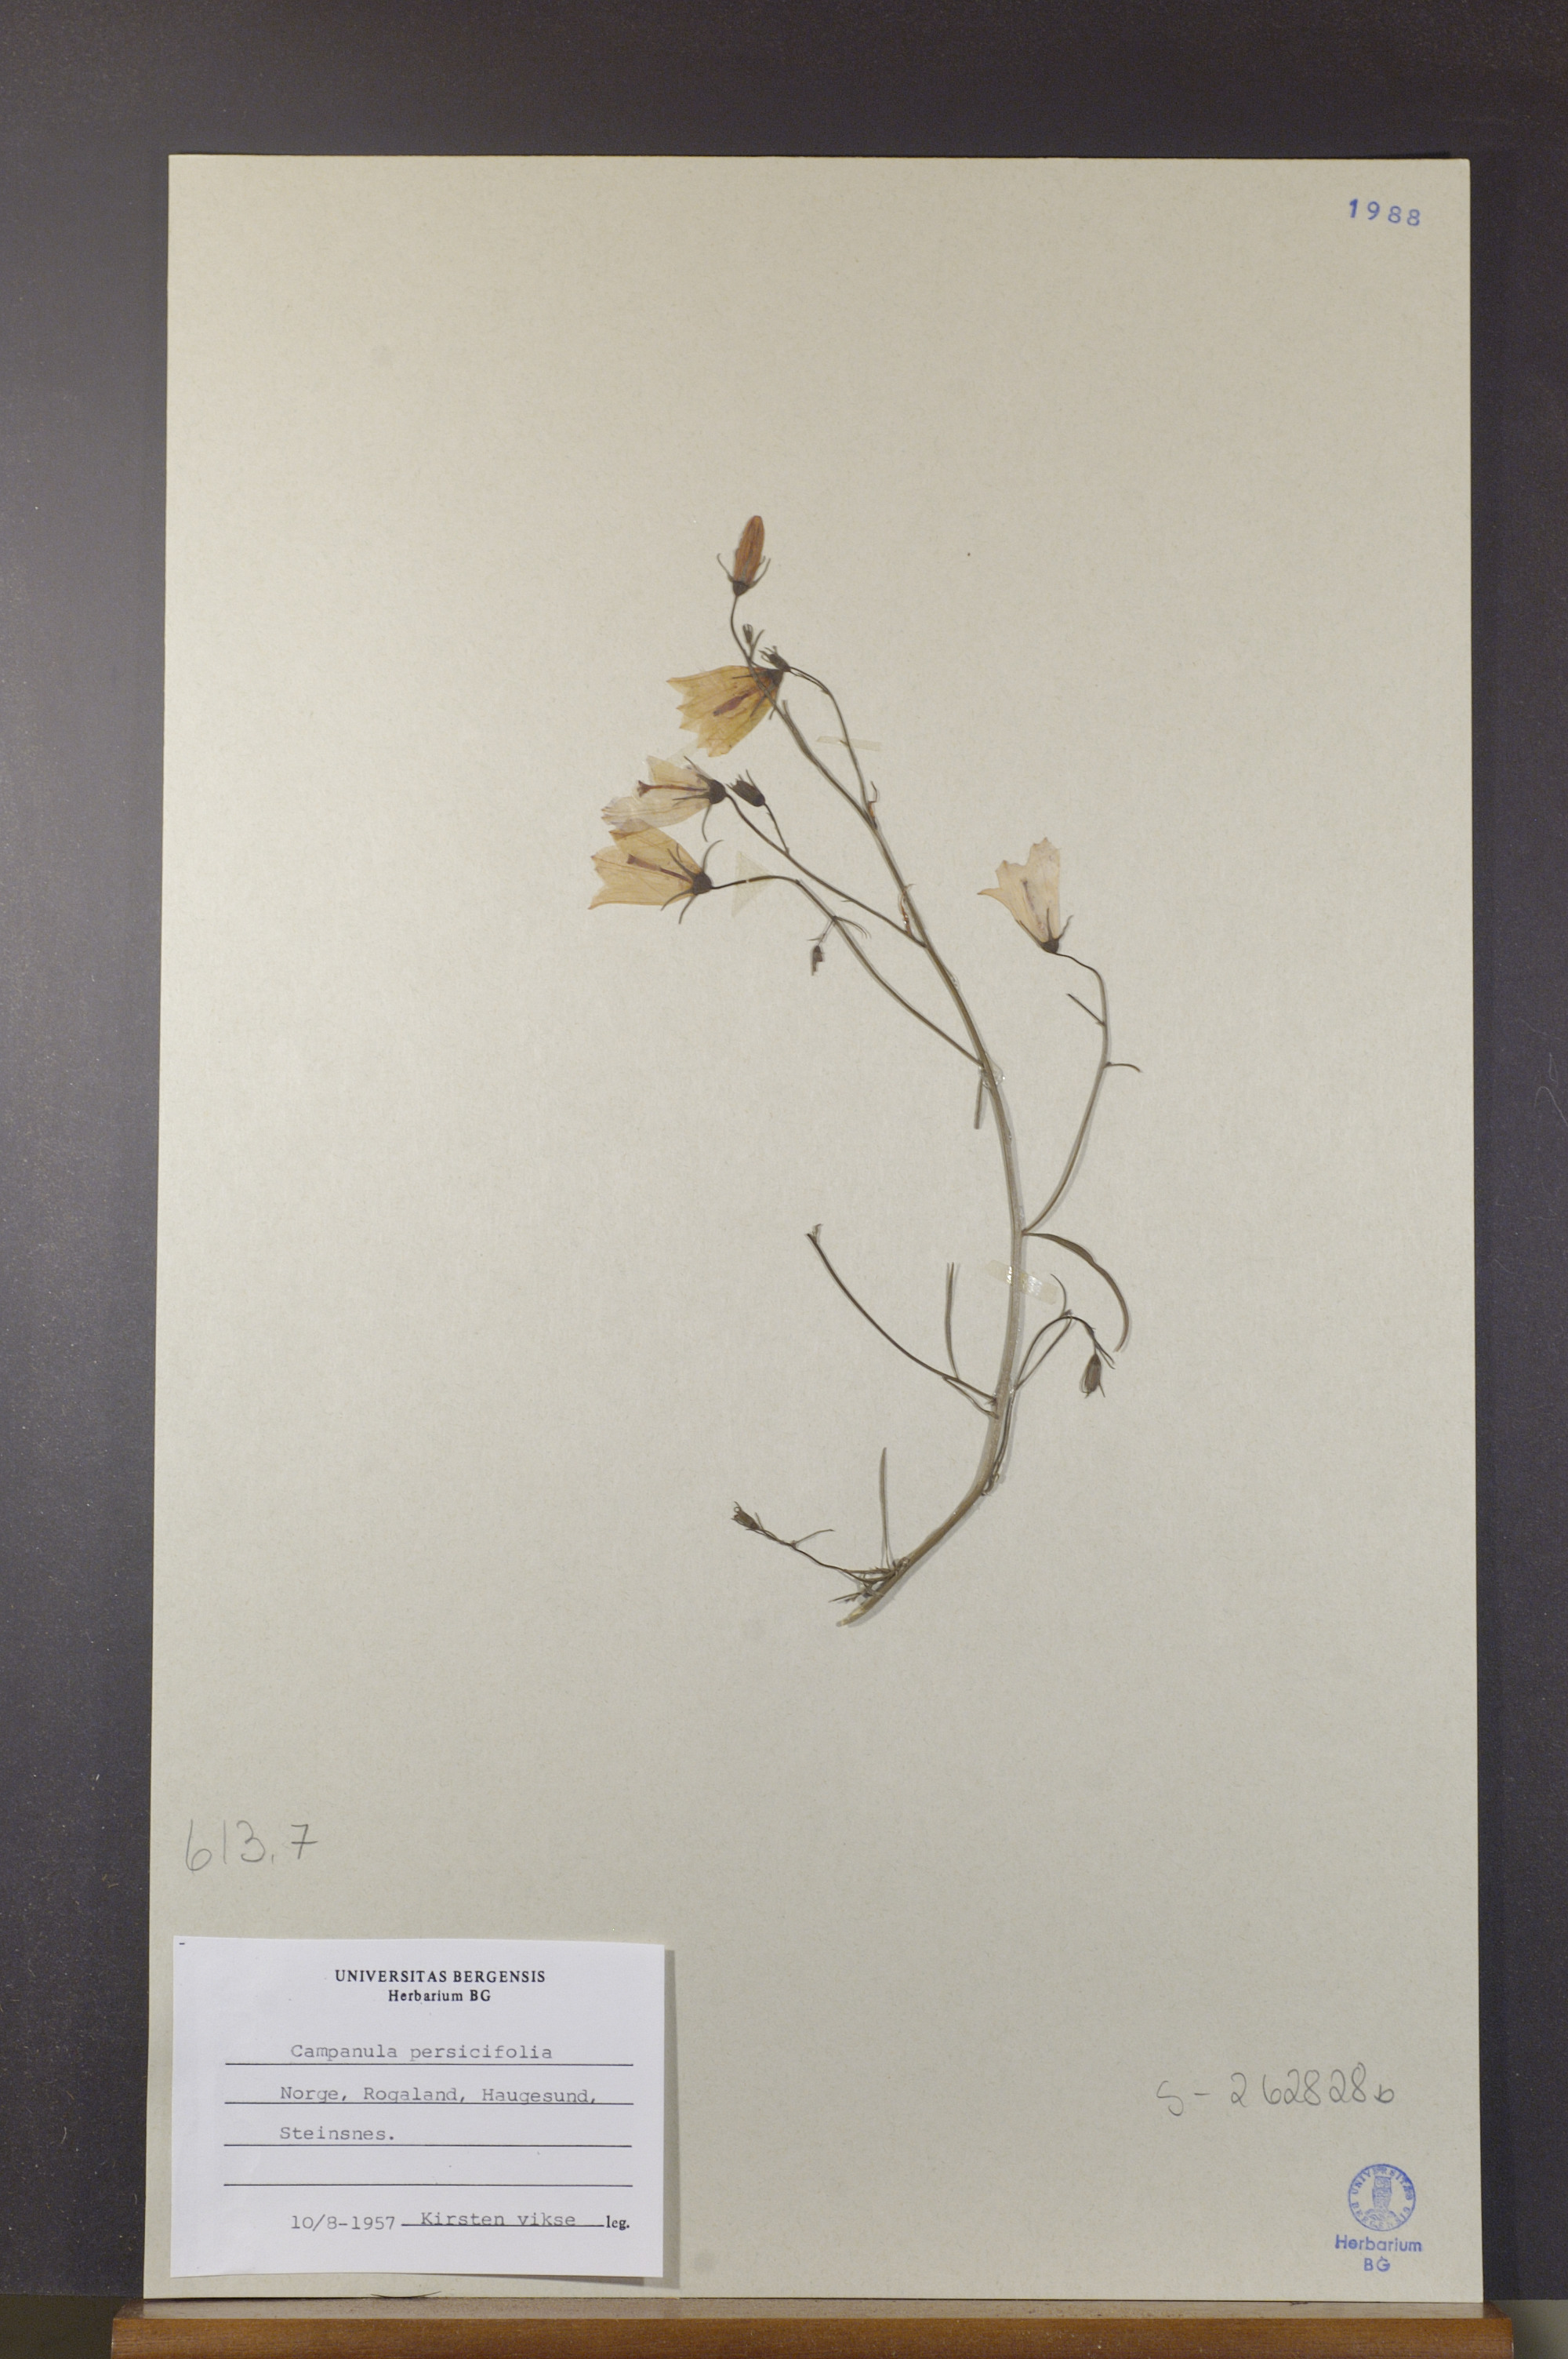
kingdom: Plantae
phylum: Tracheophyta
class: Magnoliopsida
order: Asterales
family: Campanulaceae
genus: Campanula
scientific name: Campanula rotundifolia
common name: Harebell
